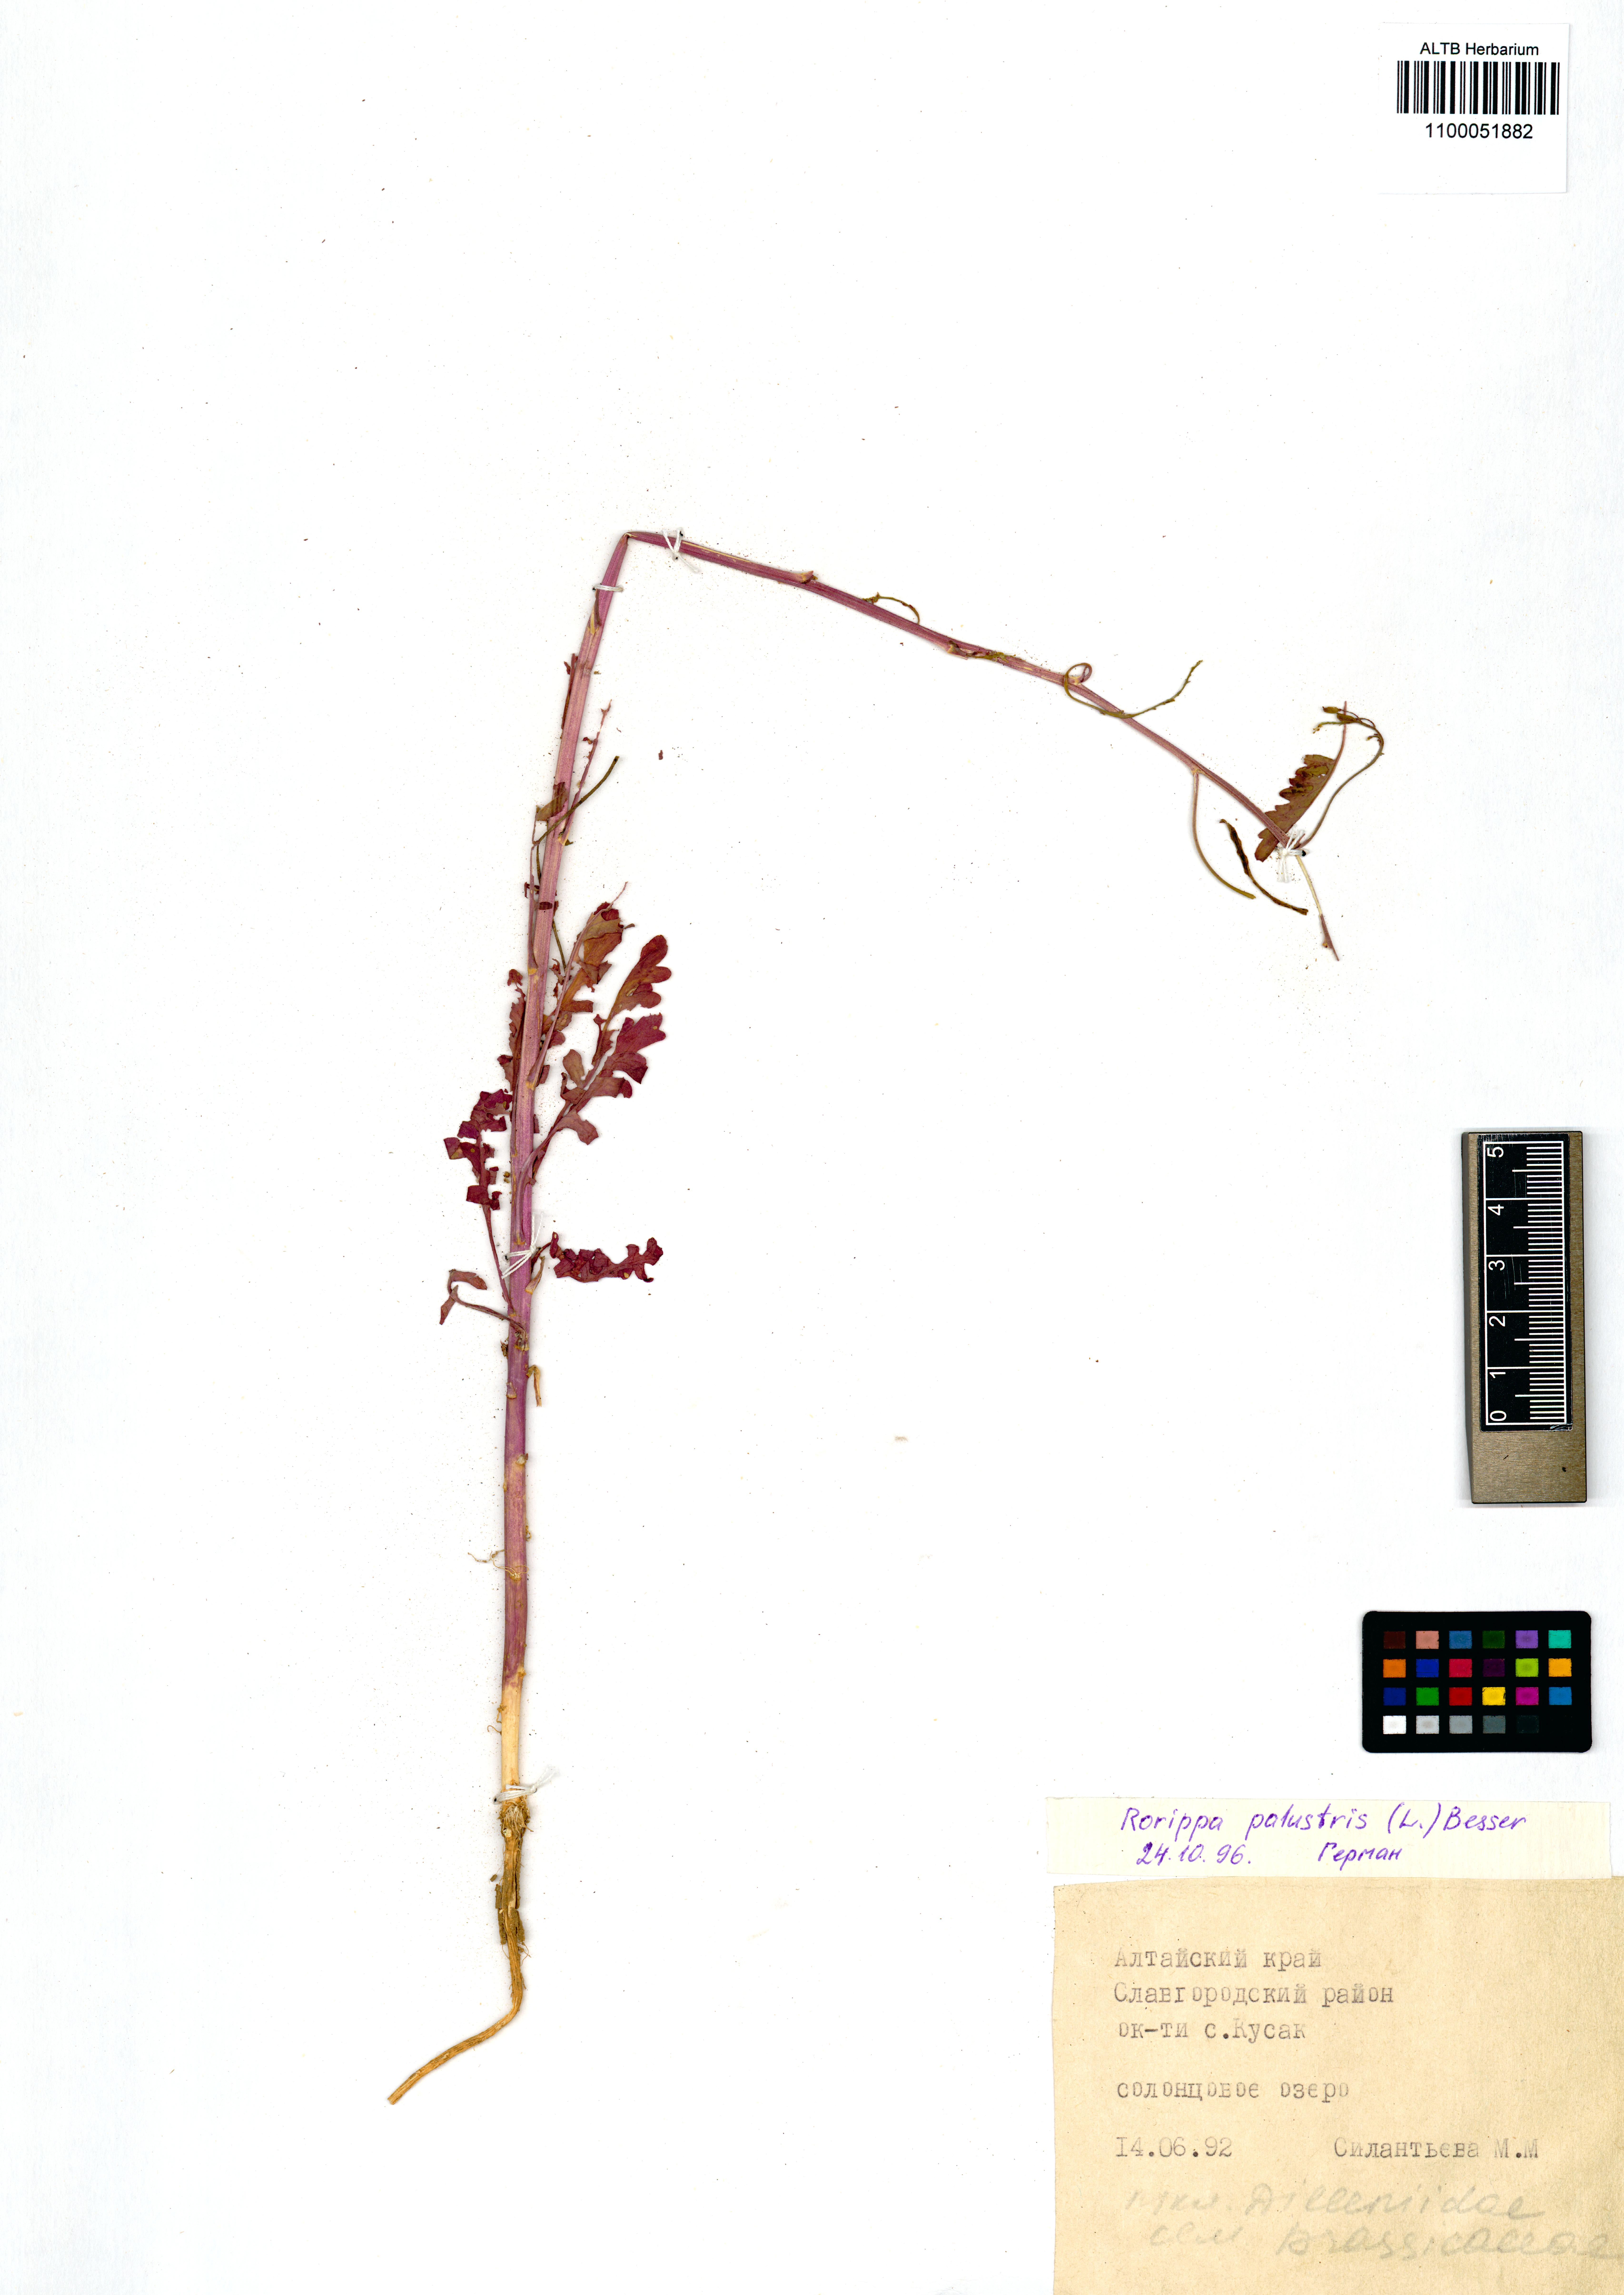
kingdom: Plantae
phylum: Tracheophyta
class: Magnoliopsida
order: Brassicales
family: Brassicaceae
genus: Rorippa
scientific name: Rorippa palustris
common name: Marsh yellow-cress
